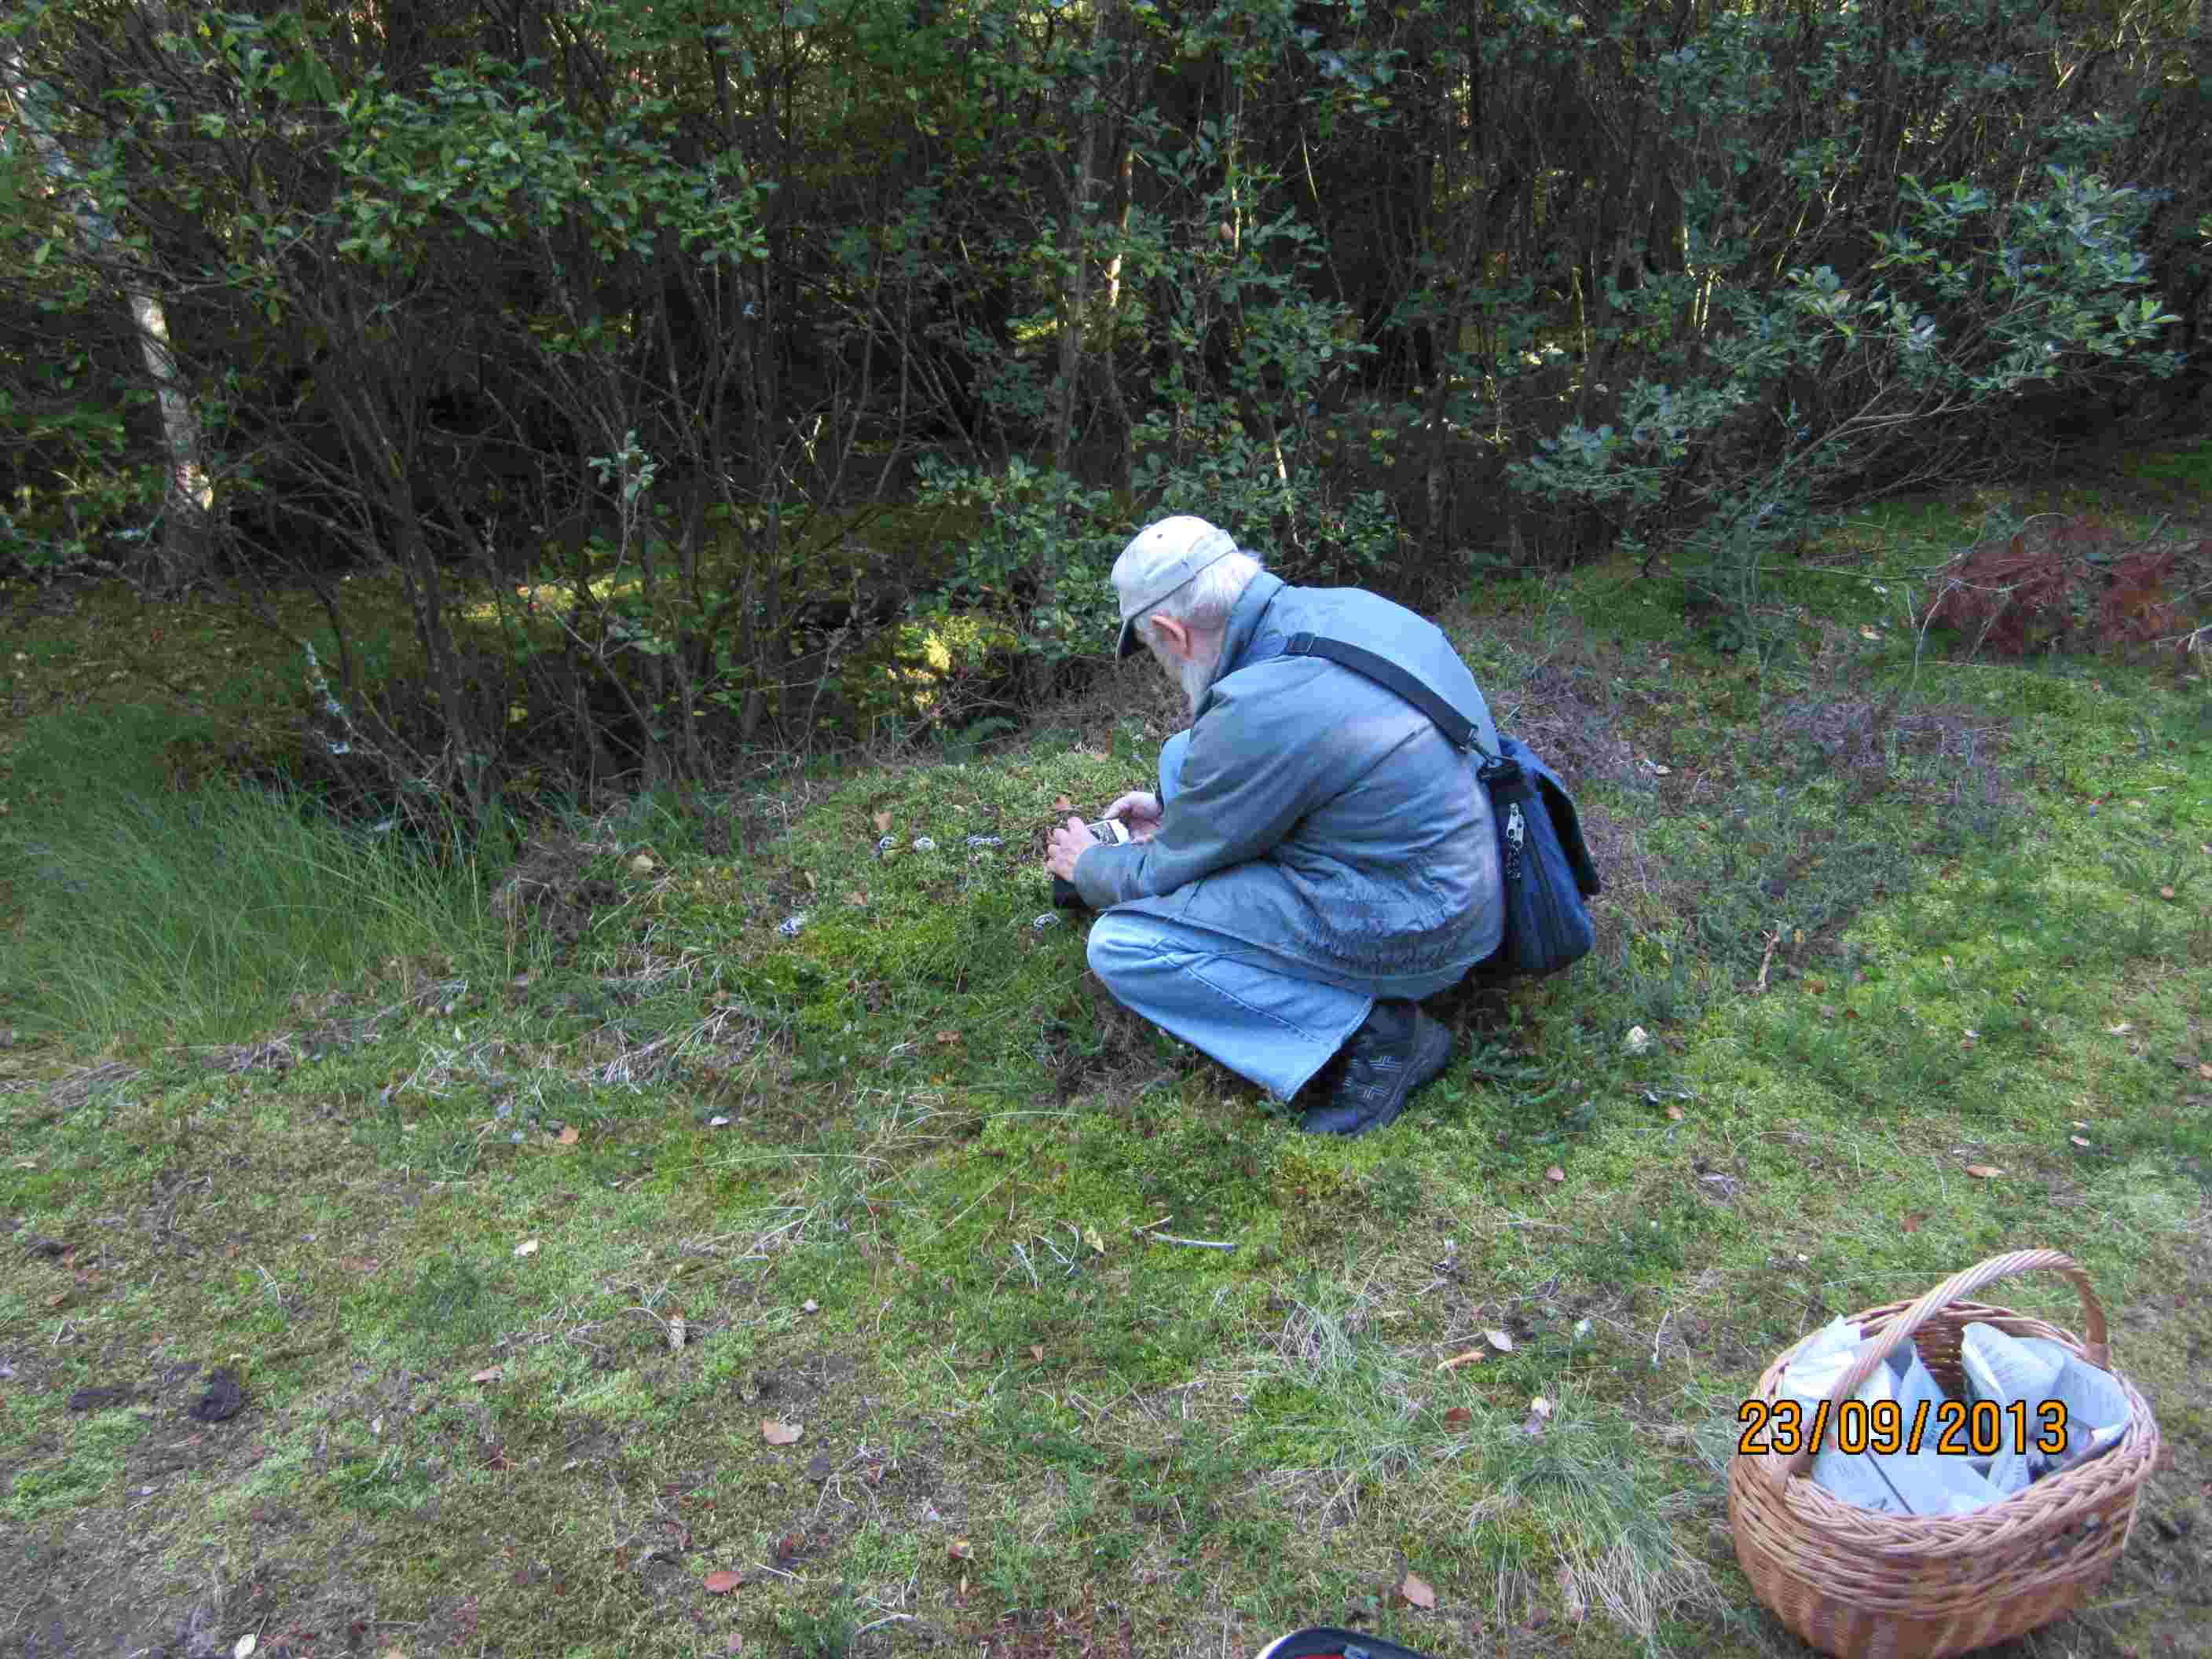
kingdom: Fungi
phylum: Basidiomycota
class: Agaricomycetes
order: Thelephorales
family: Thelephoraceae
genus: Phellodon
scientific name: Phellodon tomentosus
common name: vellugtende duftpigsvamp
